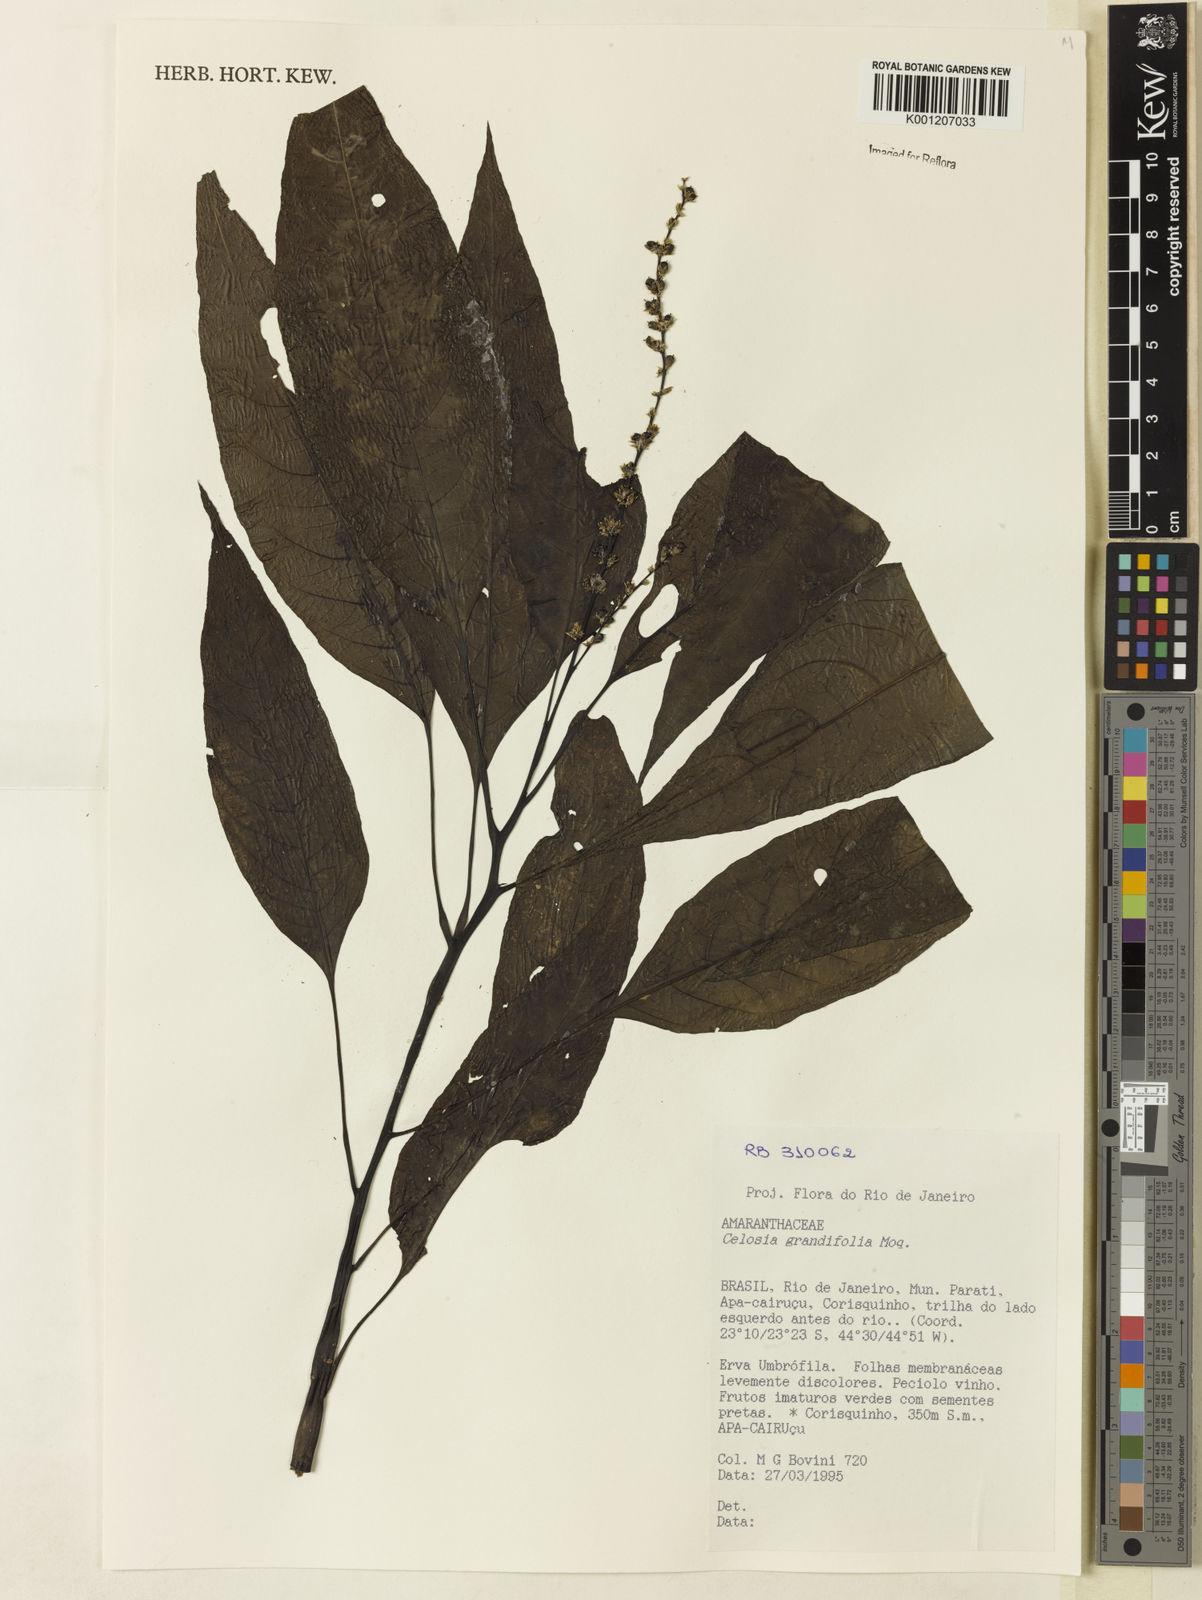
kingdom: Plantae
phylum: Tracheophyta
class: Magnoliopsida
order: Caryophyllales
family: Amaranthaceae
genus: Celosia
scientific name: Celosia grandifolia
